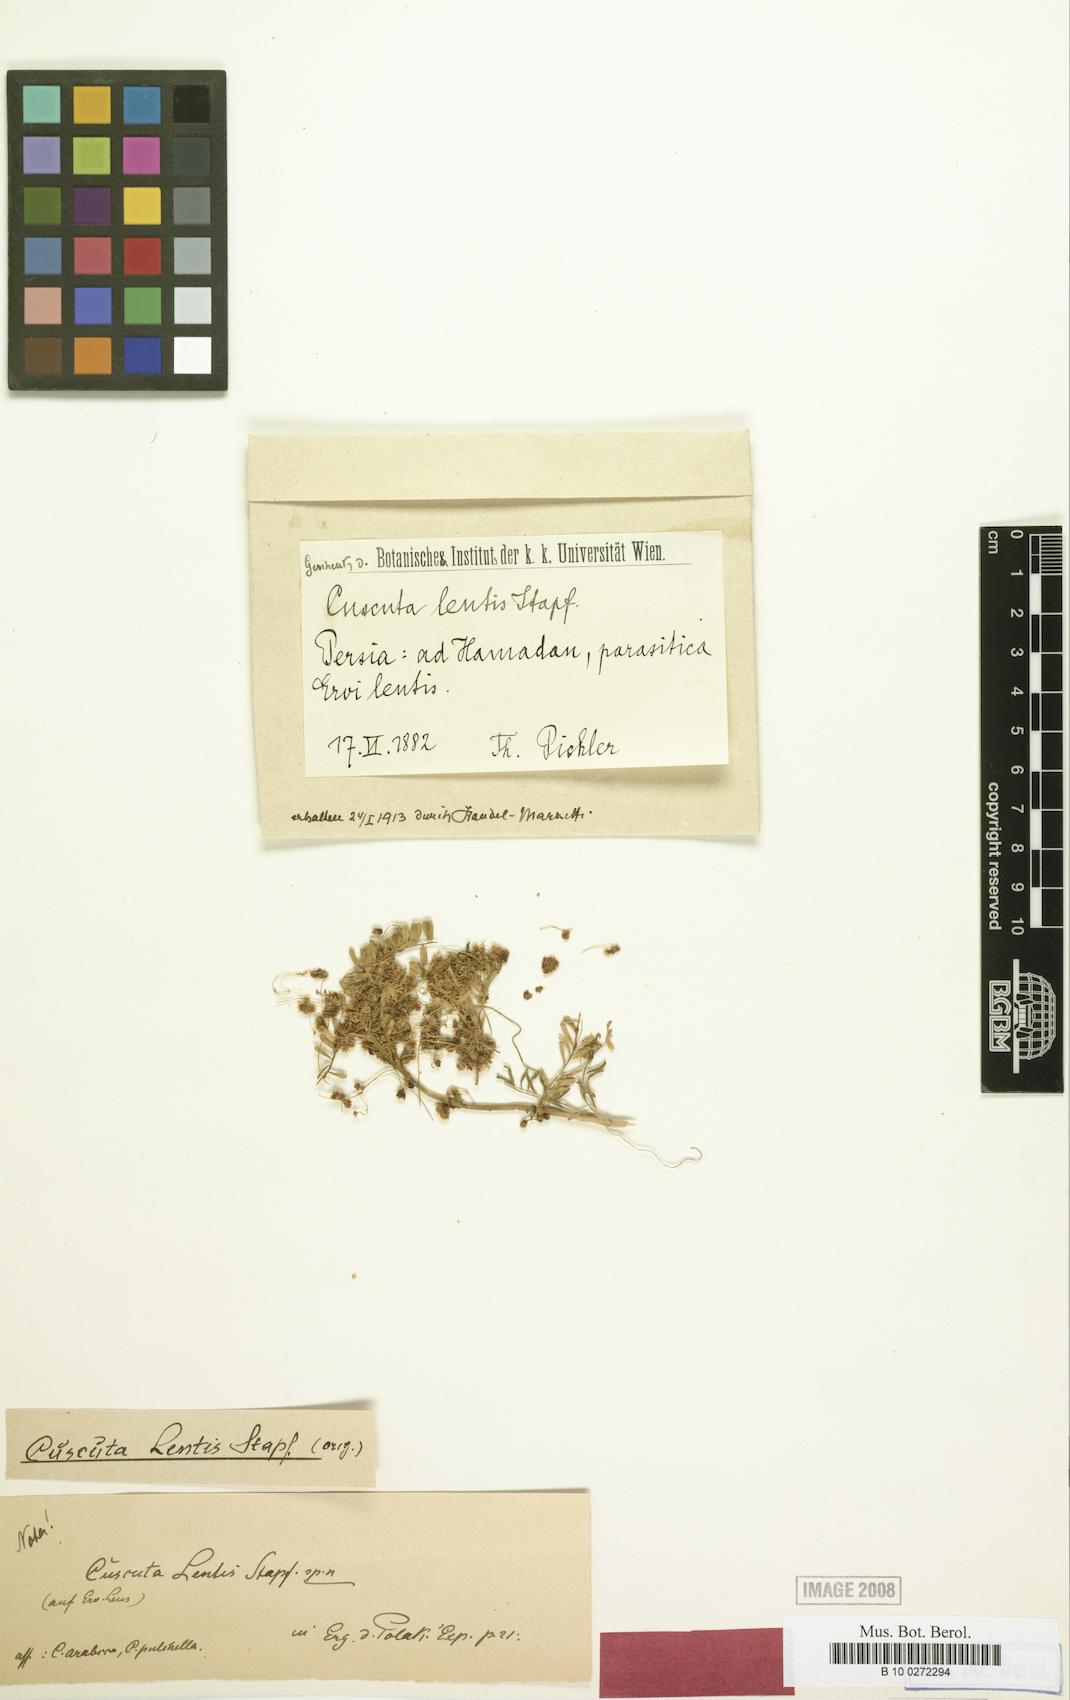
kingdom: Plantae
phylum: Tracheophyta
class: Magnoliopsida
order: Solanales
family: Convolvulaceae
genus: Cuscuta
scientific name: Cuscuta pedicellata
